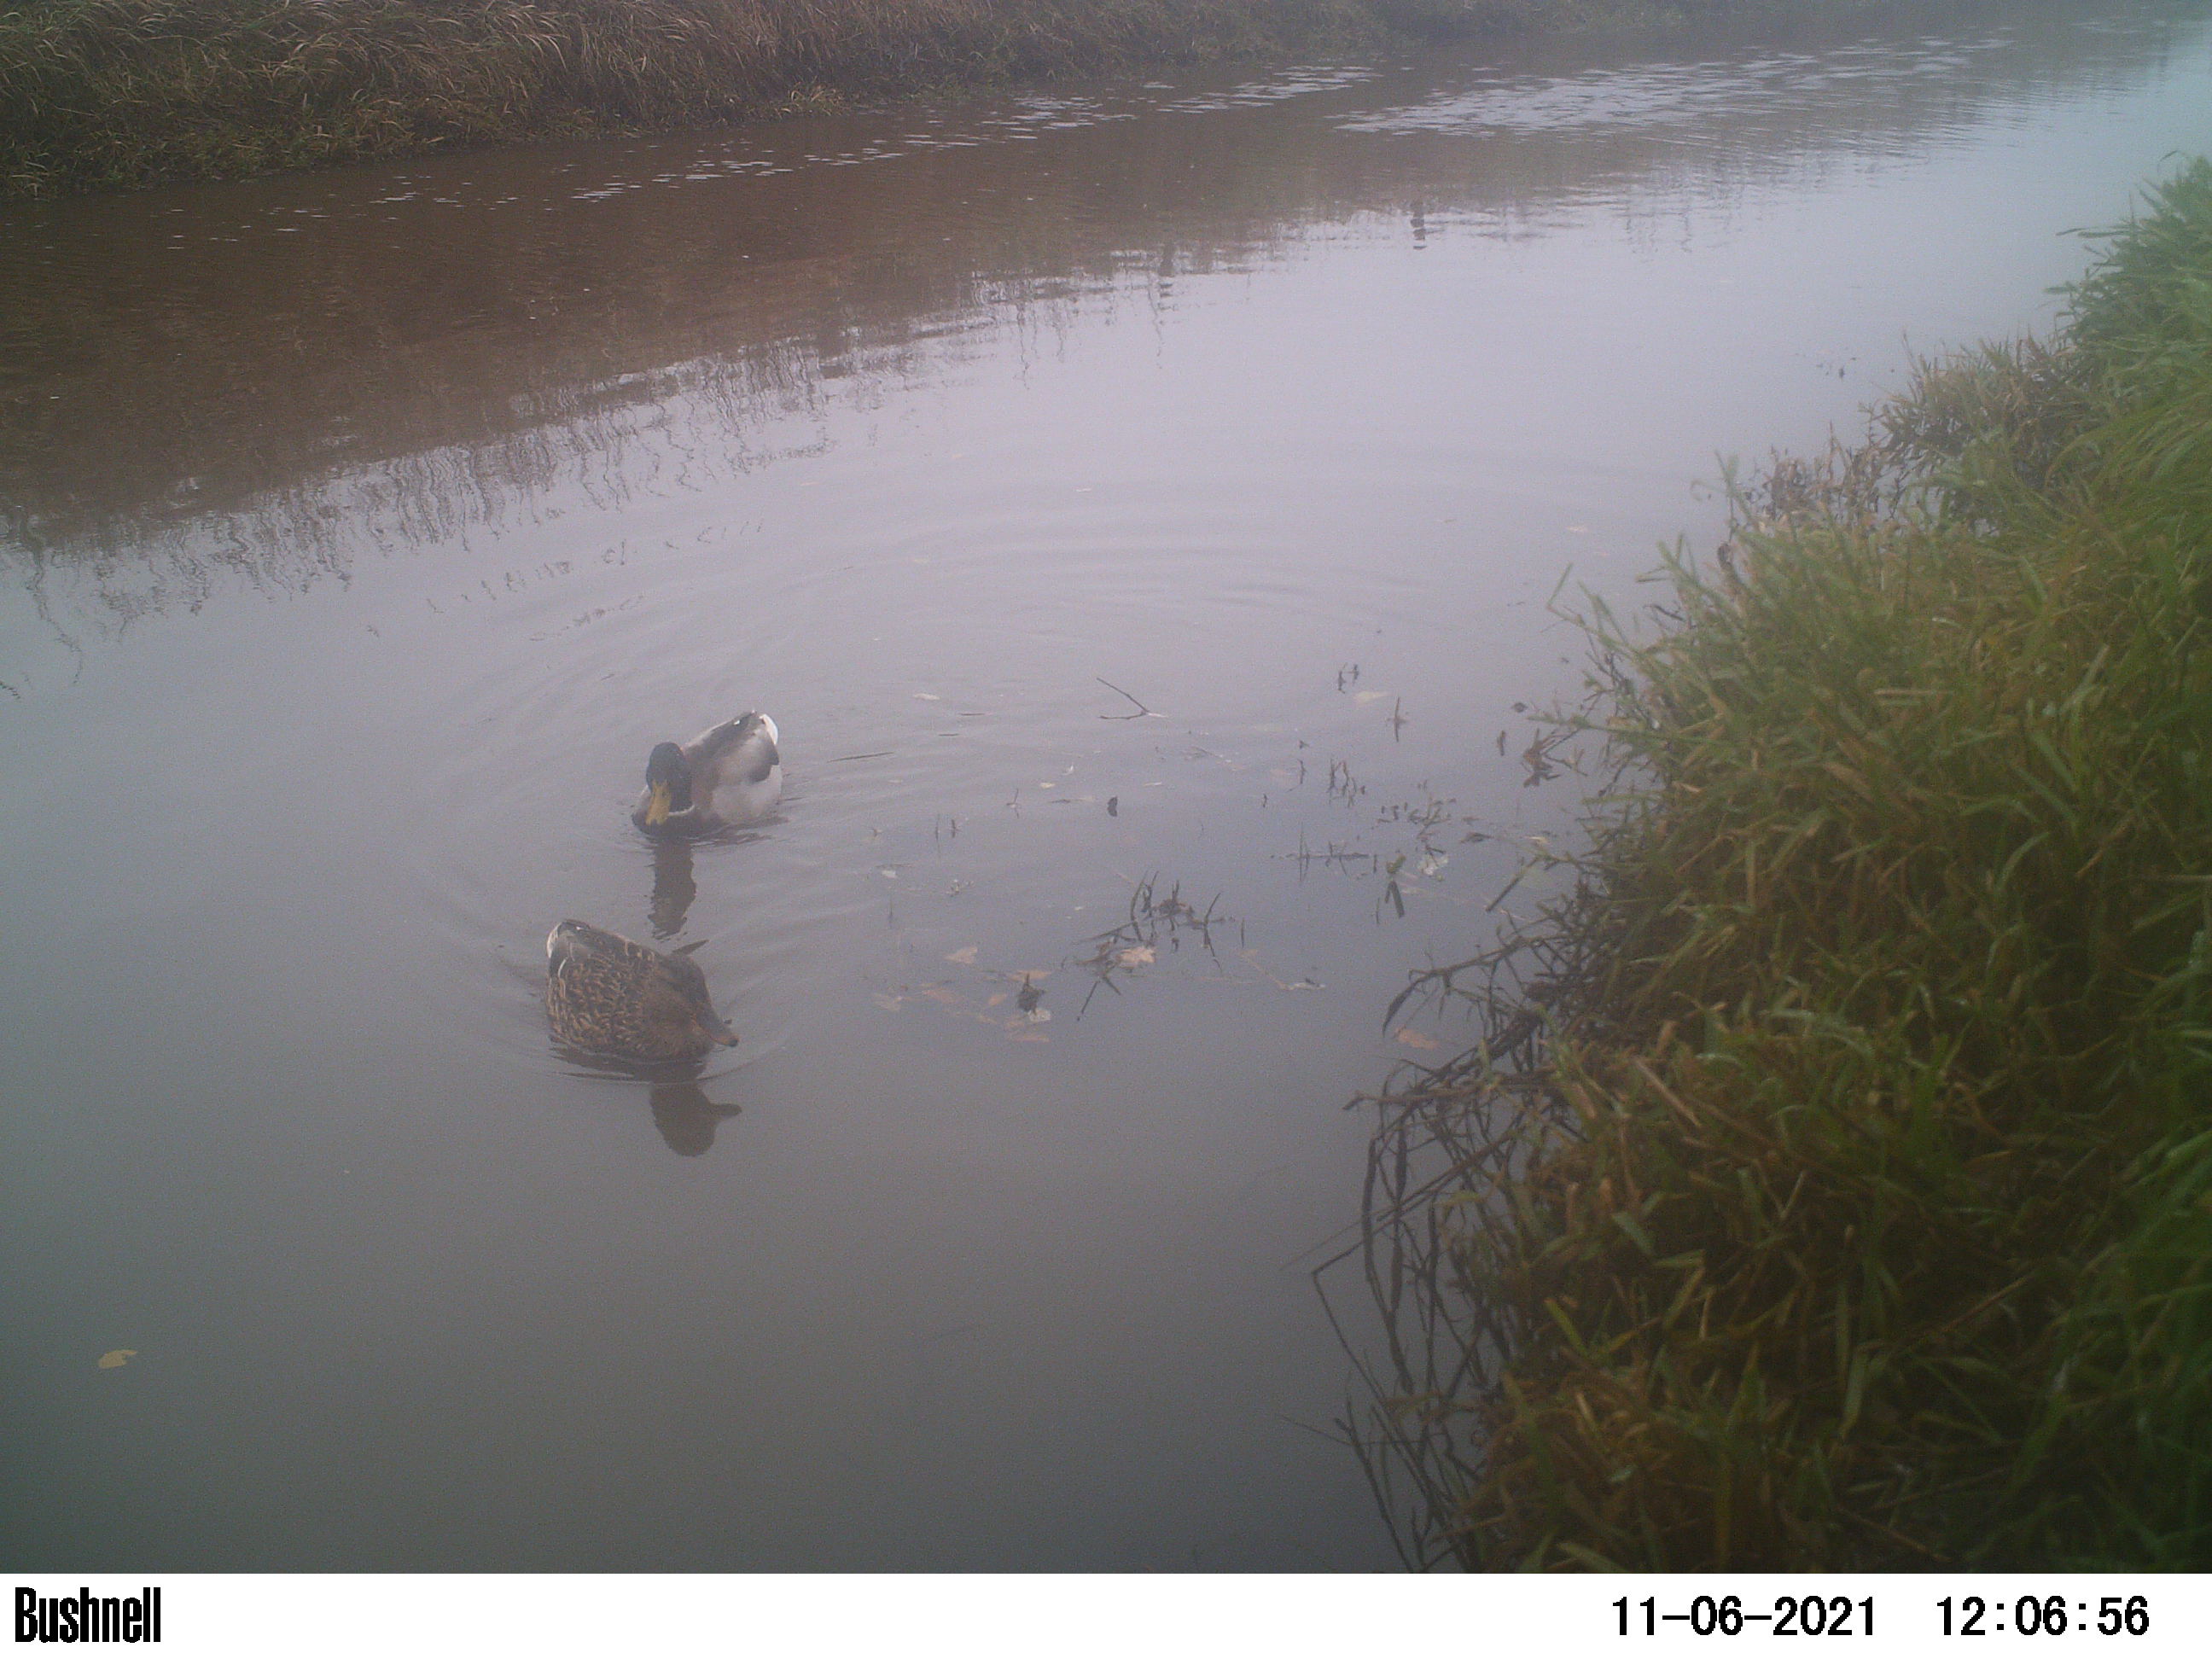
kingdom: Animalia
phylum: Chordata
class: Aves
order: Anseriformes
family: Anatidae
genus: Anas
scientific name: Anas
